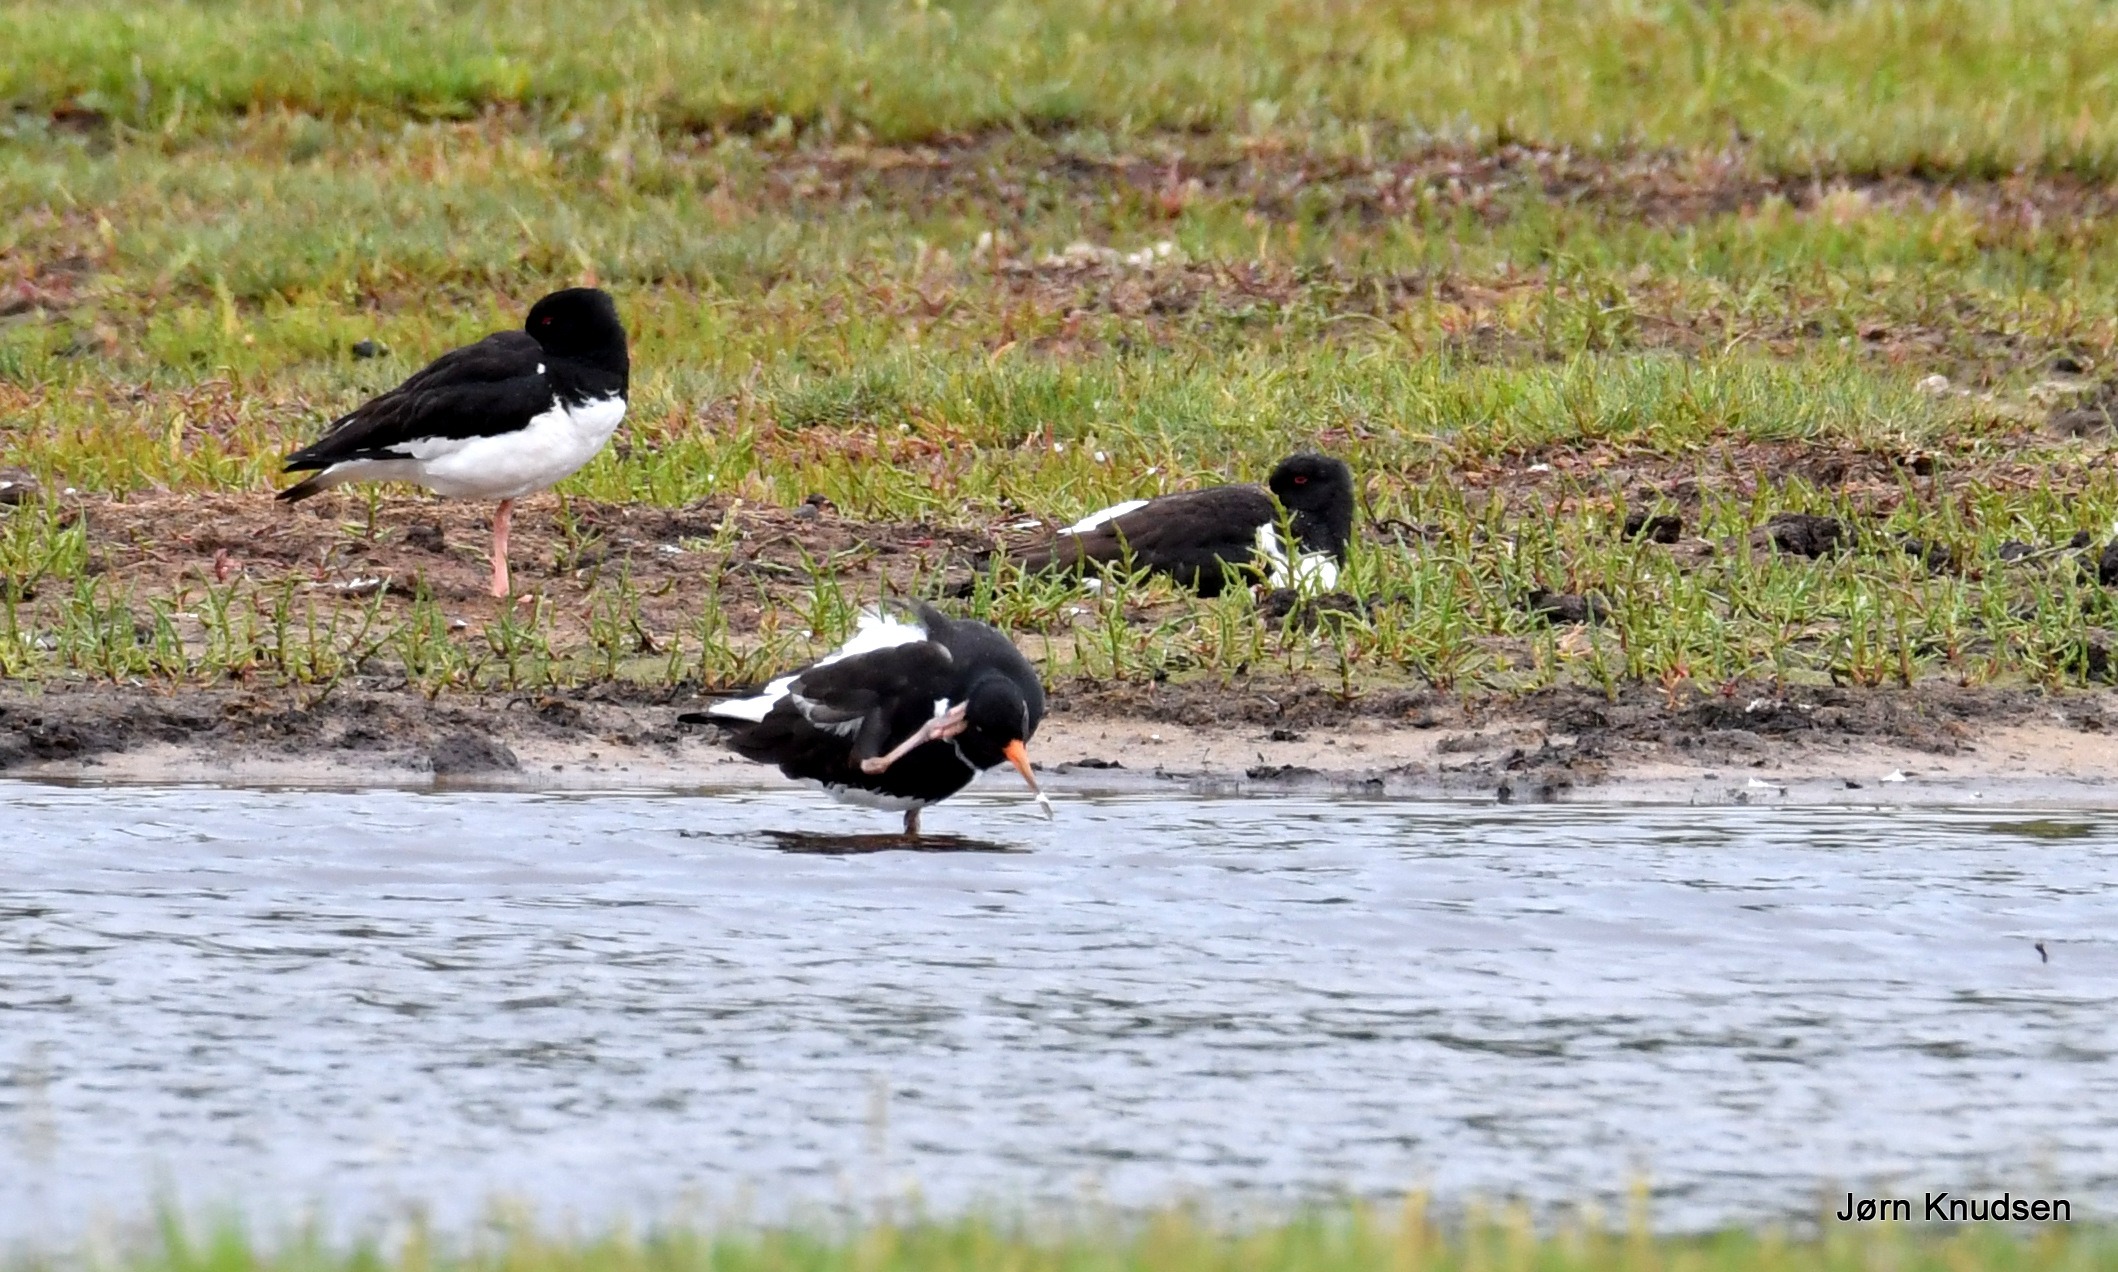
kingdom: Animalia
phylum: Chordata
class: Aves
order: Charadriiformes
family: Haematopodidae
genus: Haematopus
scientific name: Haematopus ostralegus
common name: Strandskade
